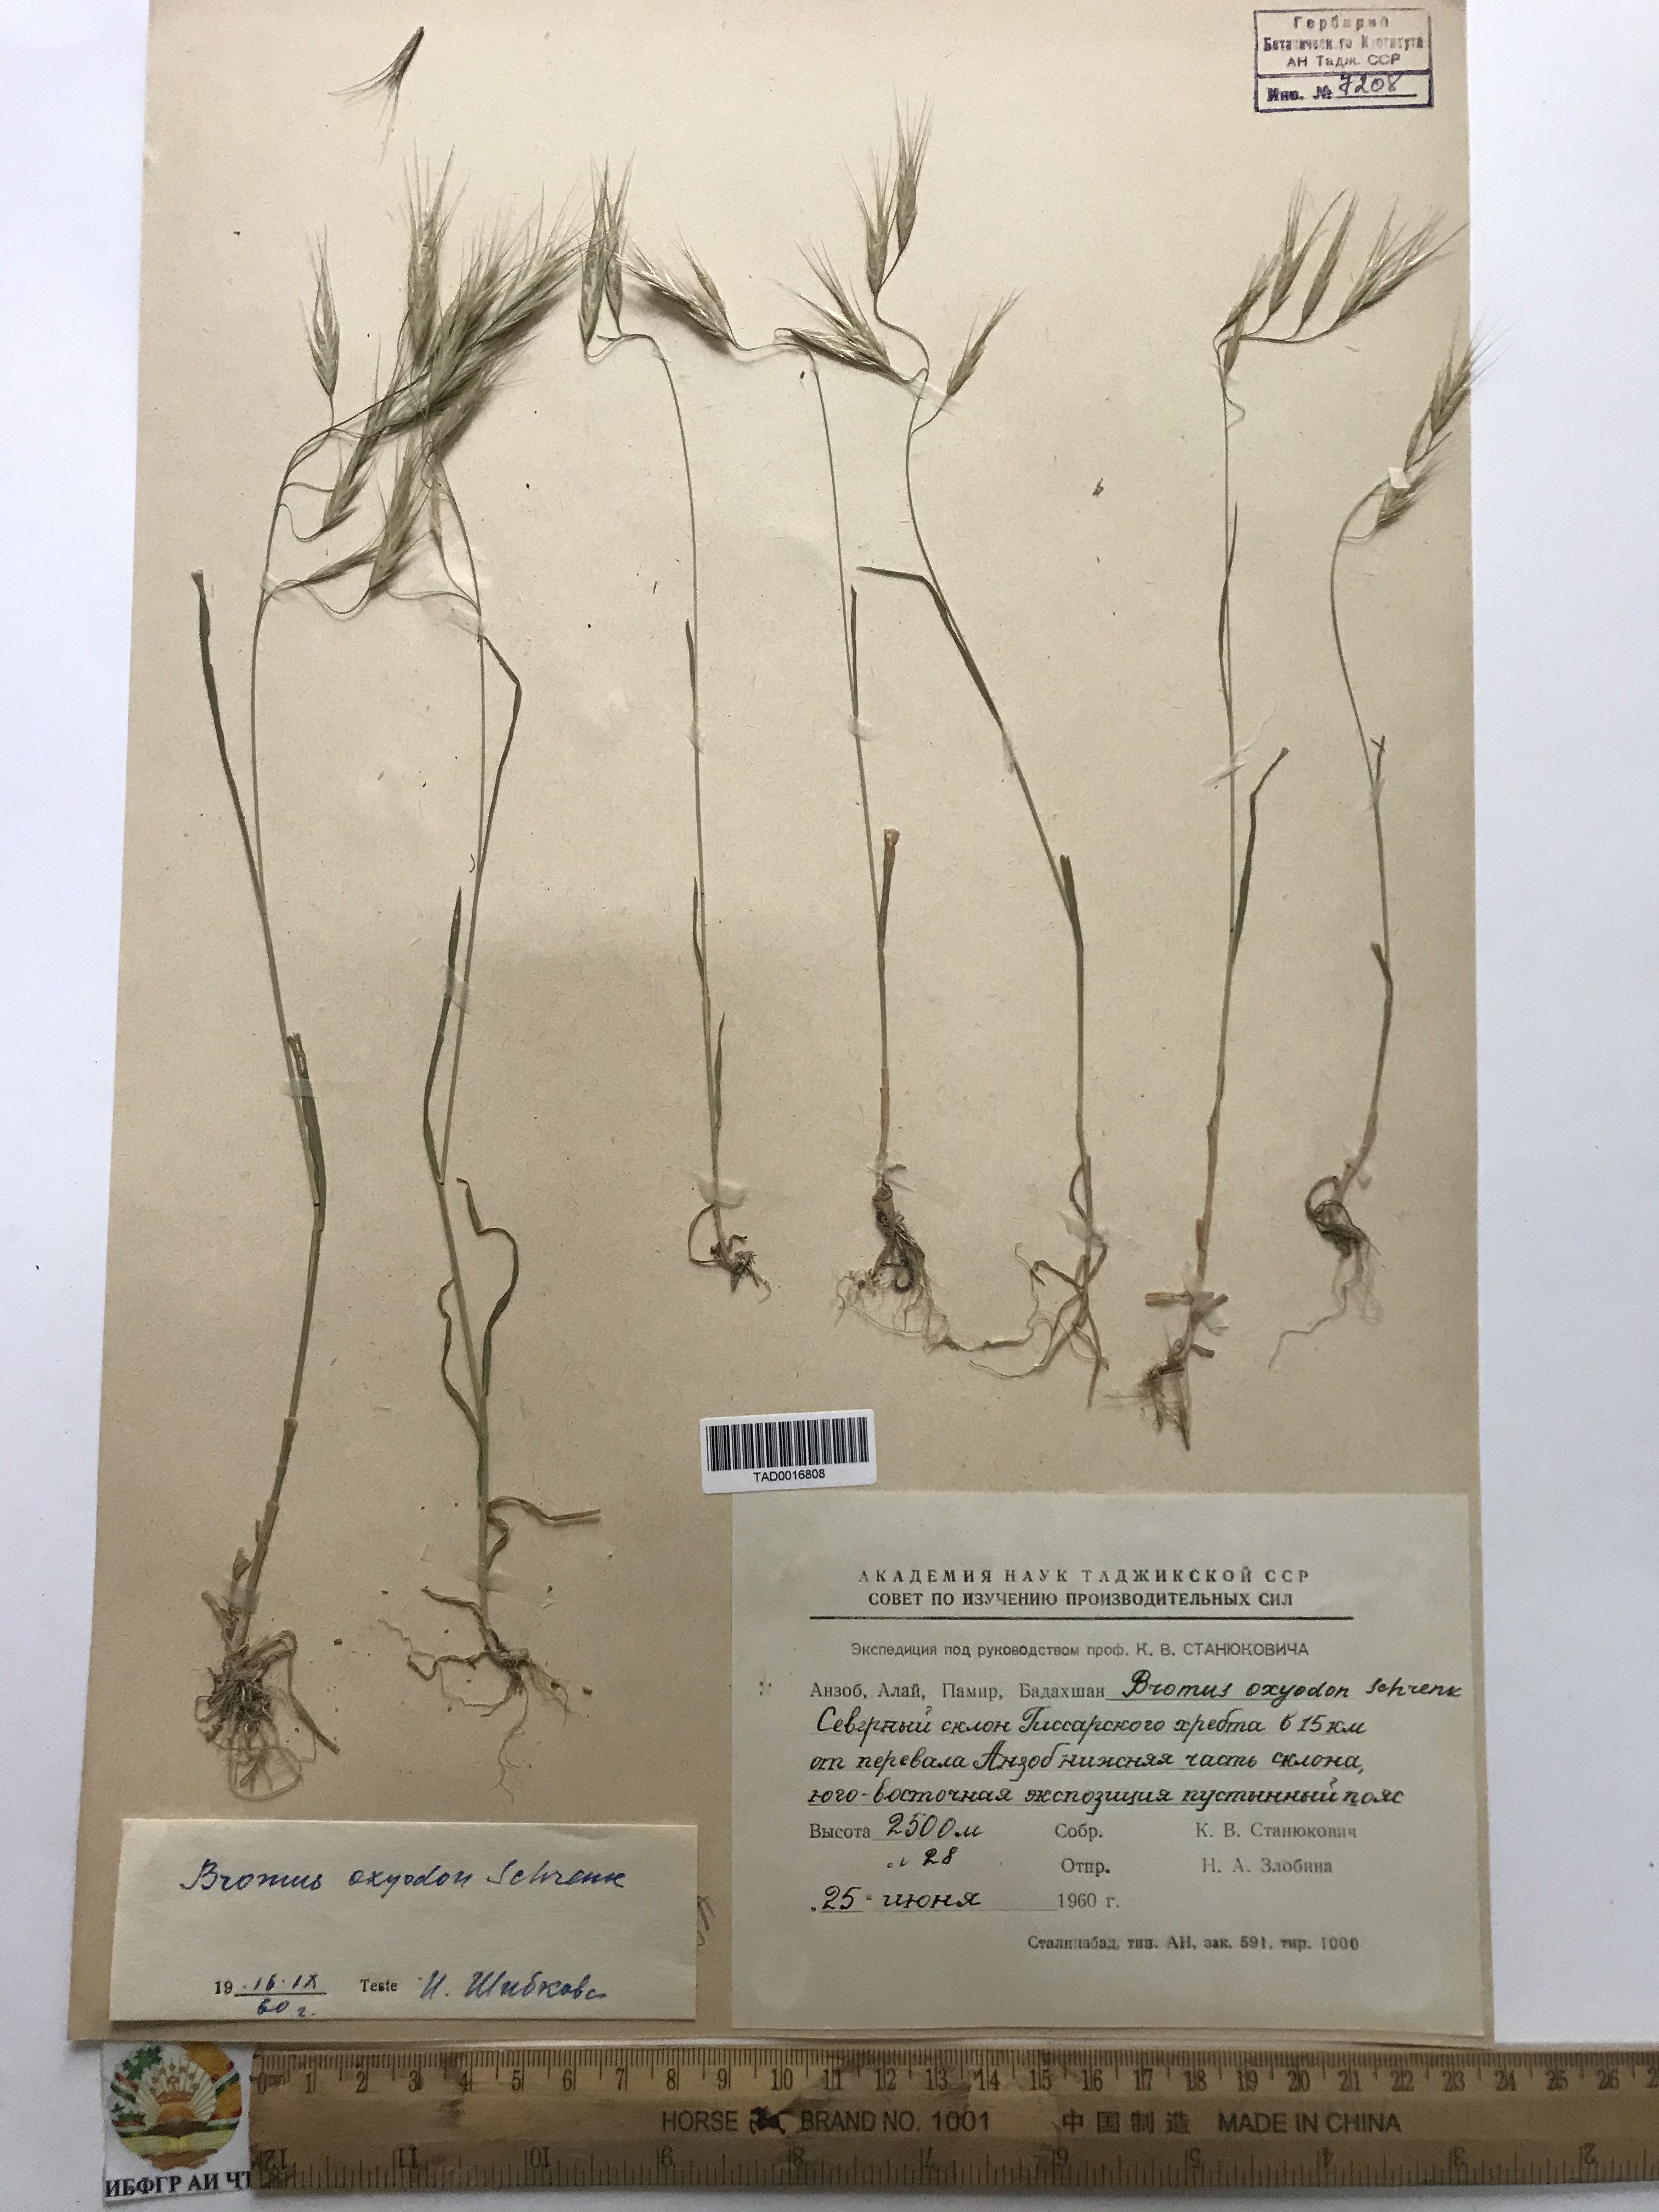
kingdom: Plantae
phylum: Tracheophyta
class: Liliopsida
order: Poales
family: Poaceae
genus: Bromus
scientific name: Bromus oxyodon
